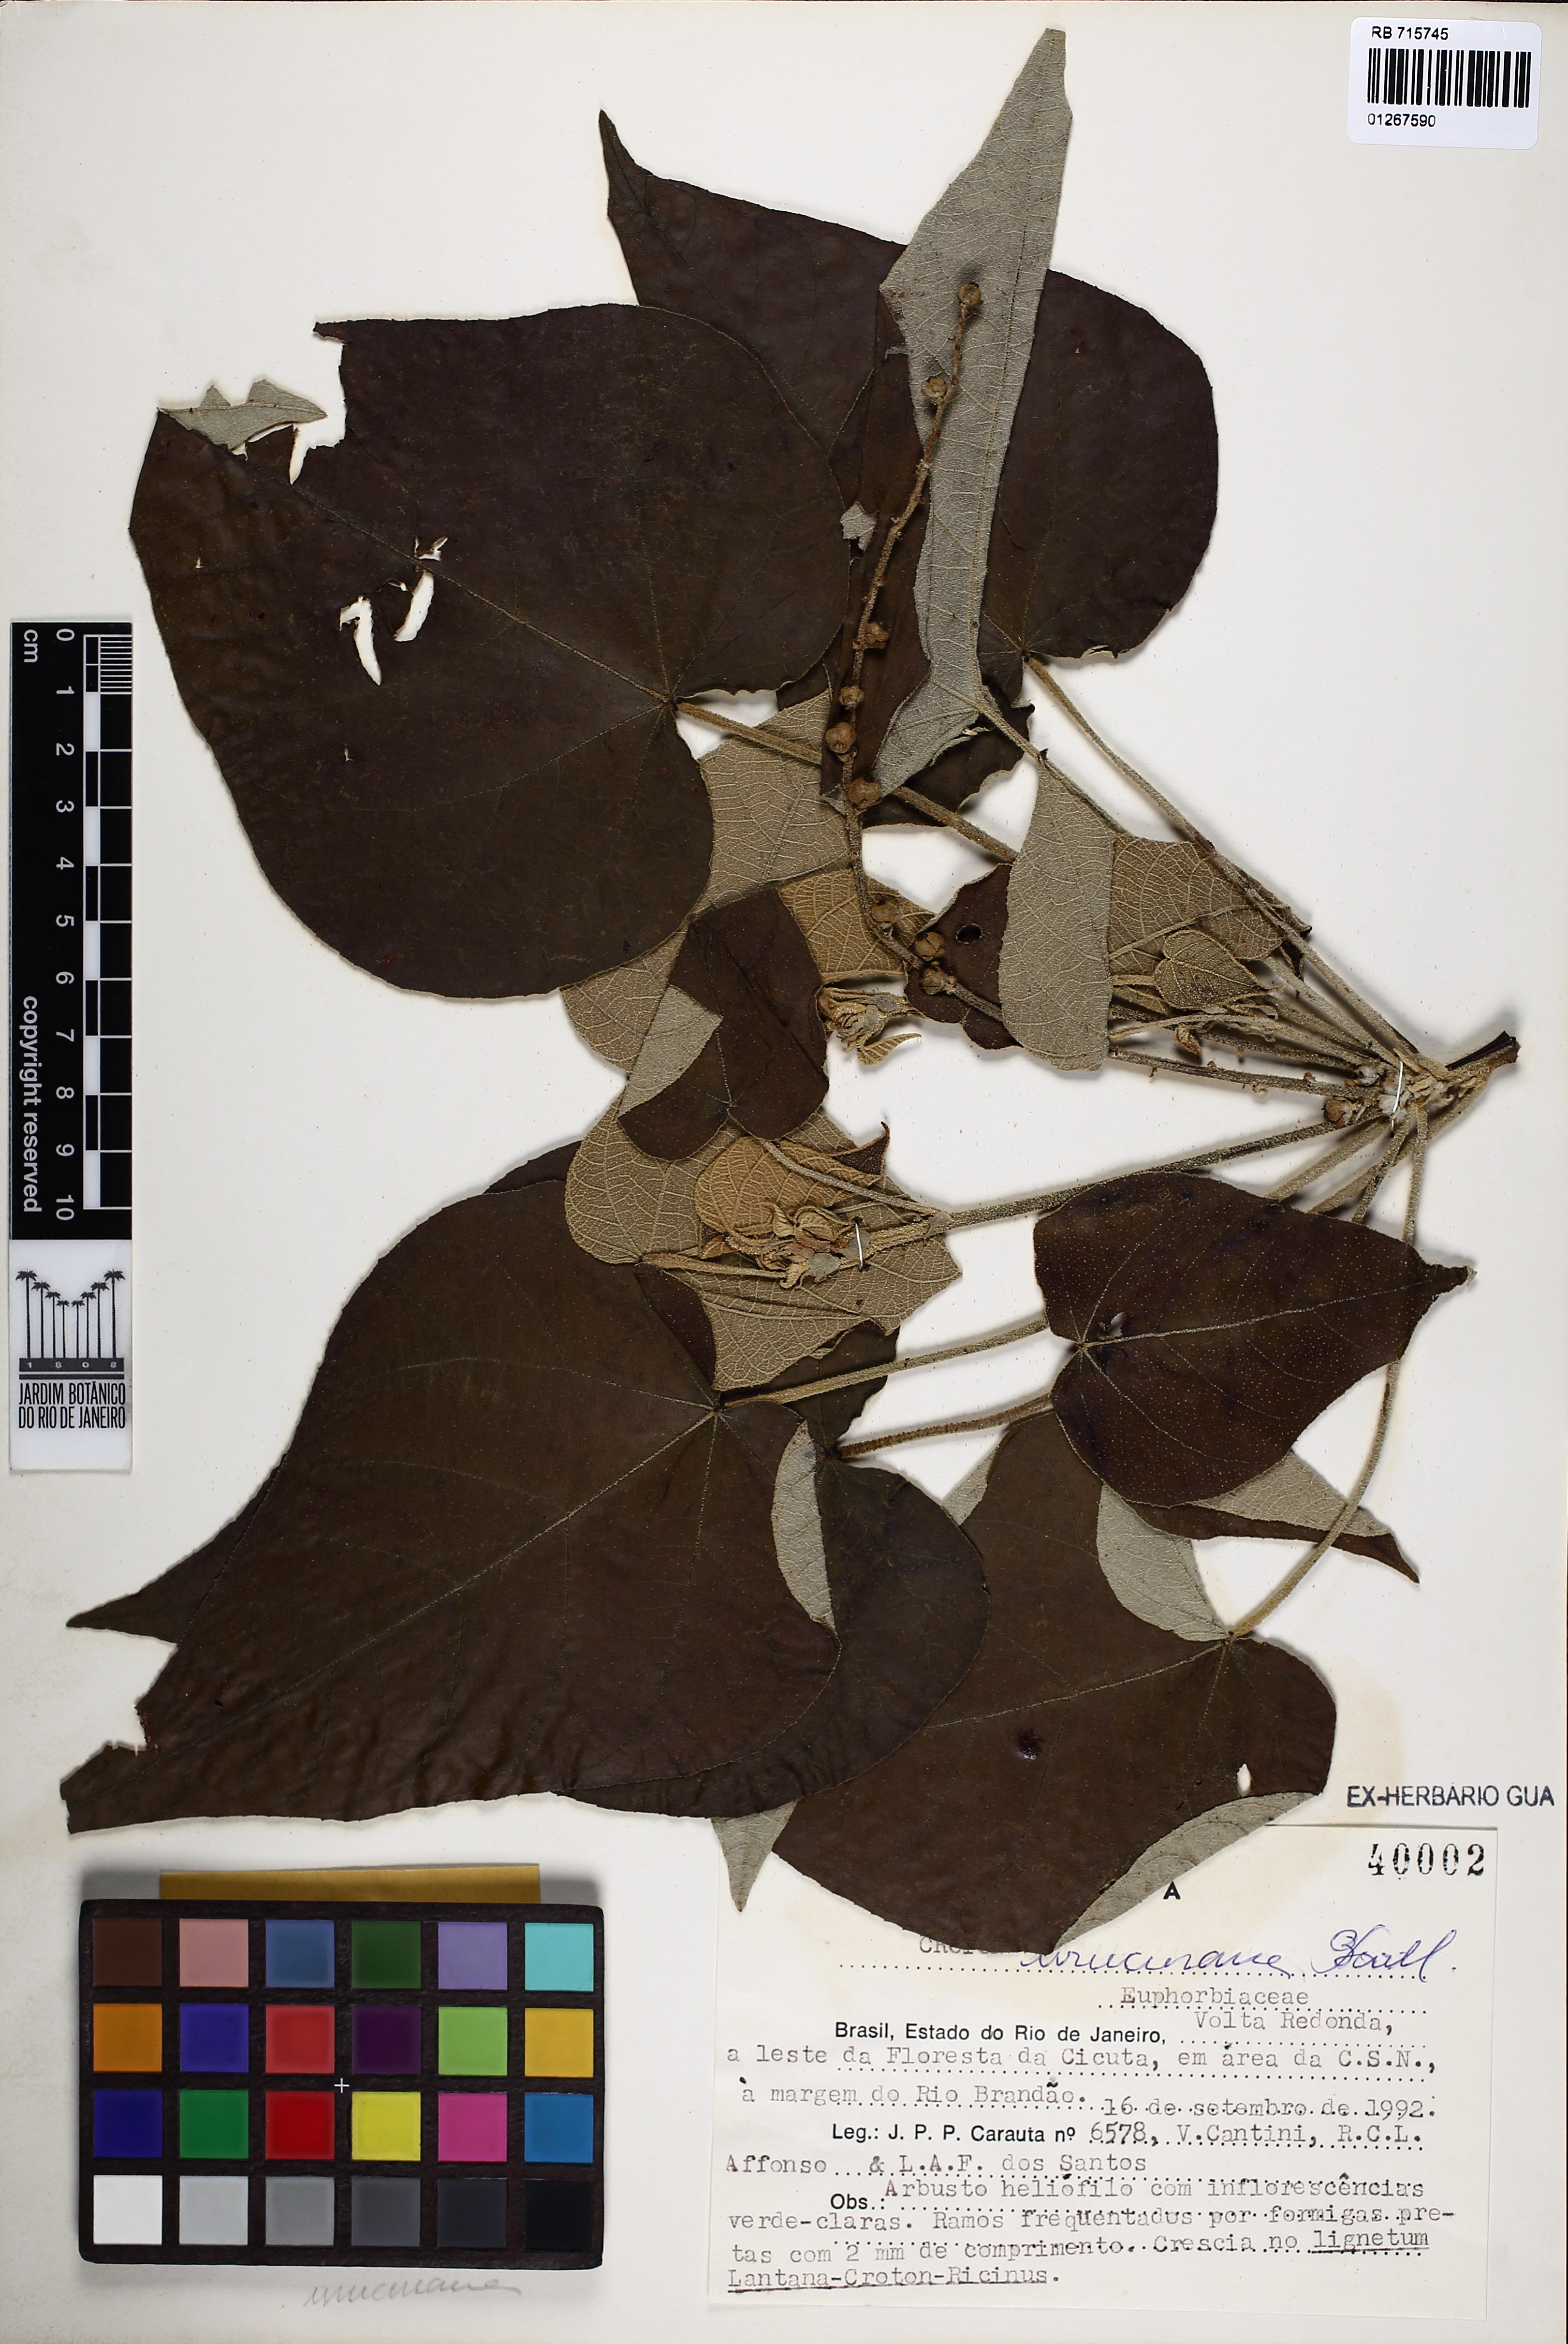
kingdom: Plantae
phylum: Tracheophyta
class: Magnoliopsida
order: Malpighiales
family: Euphorbiaceae
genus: Croton
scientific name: Croton urucurana
